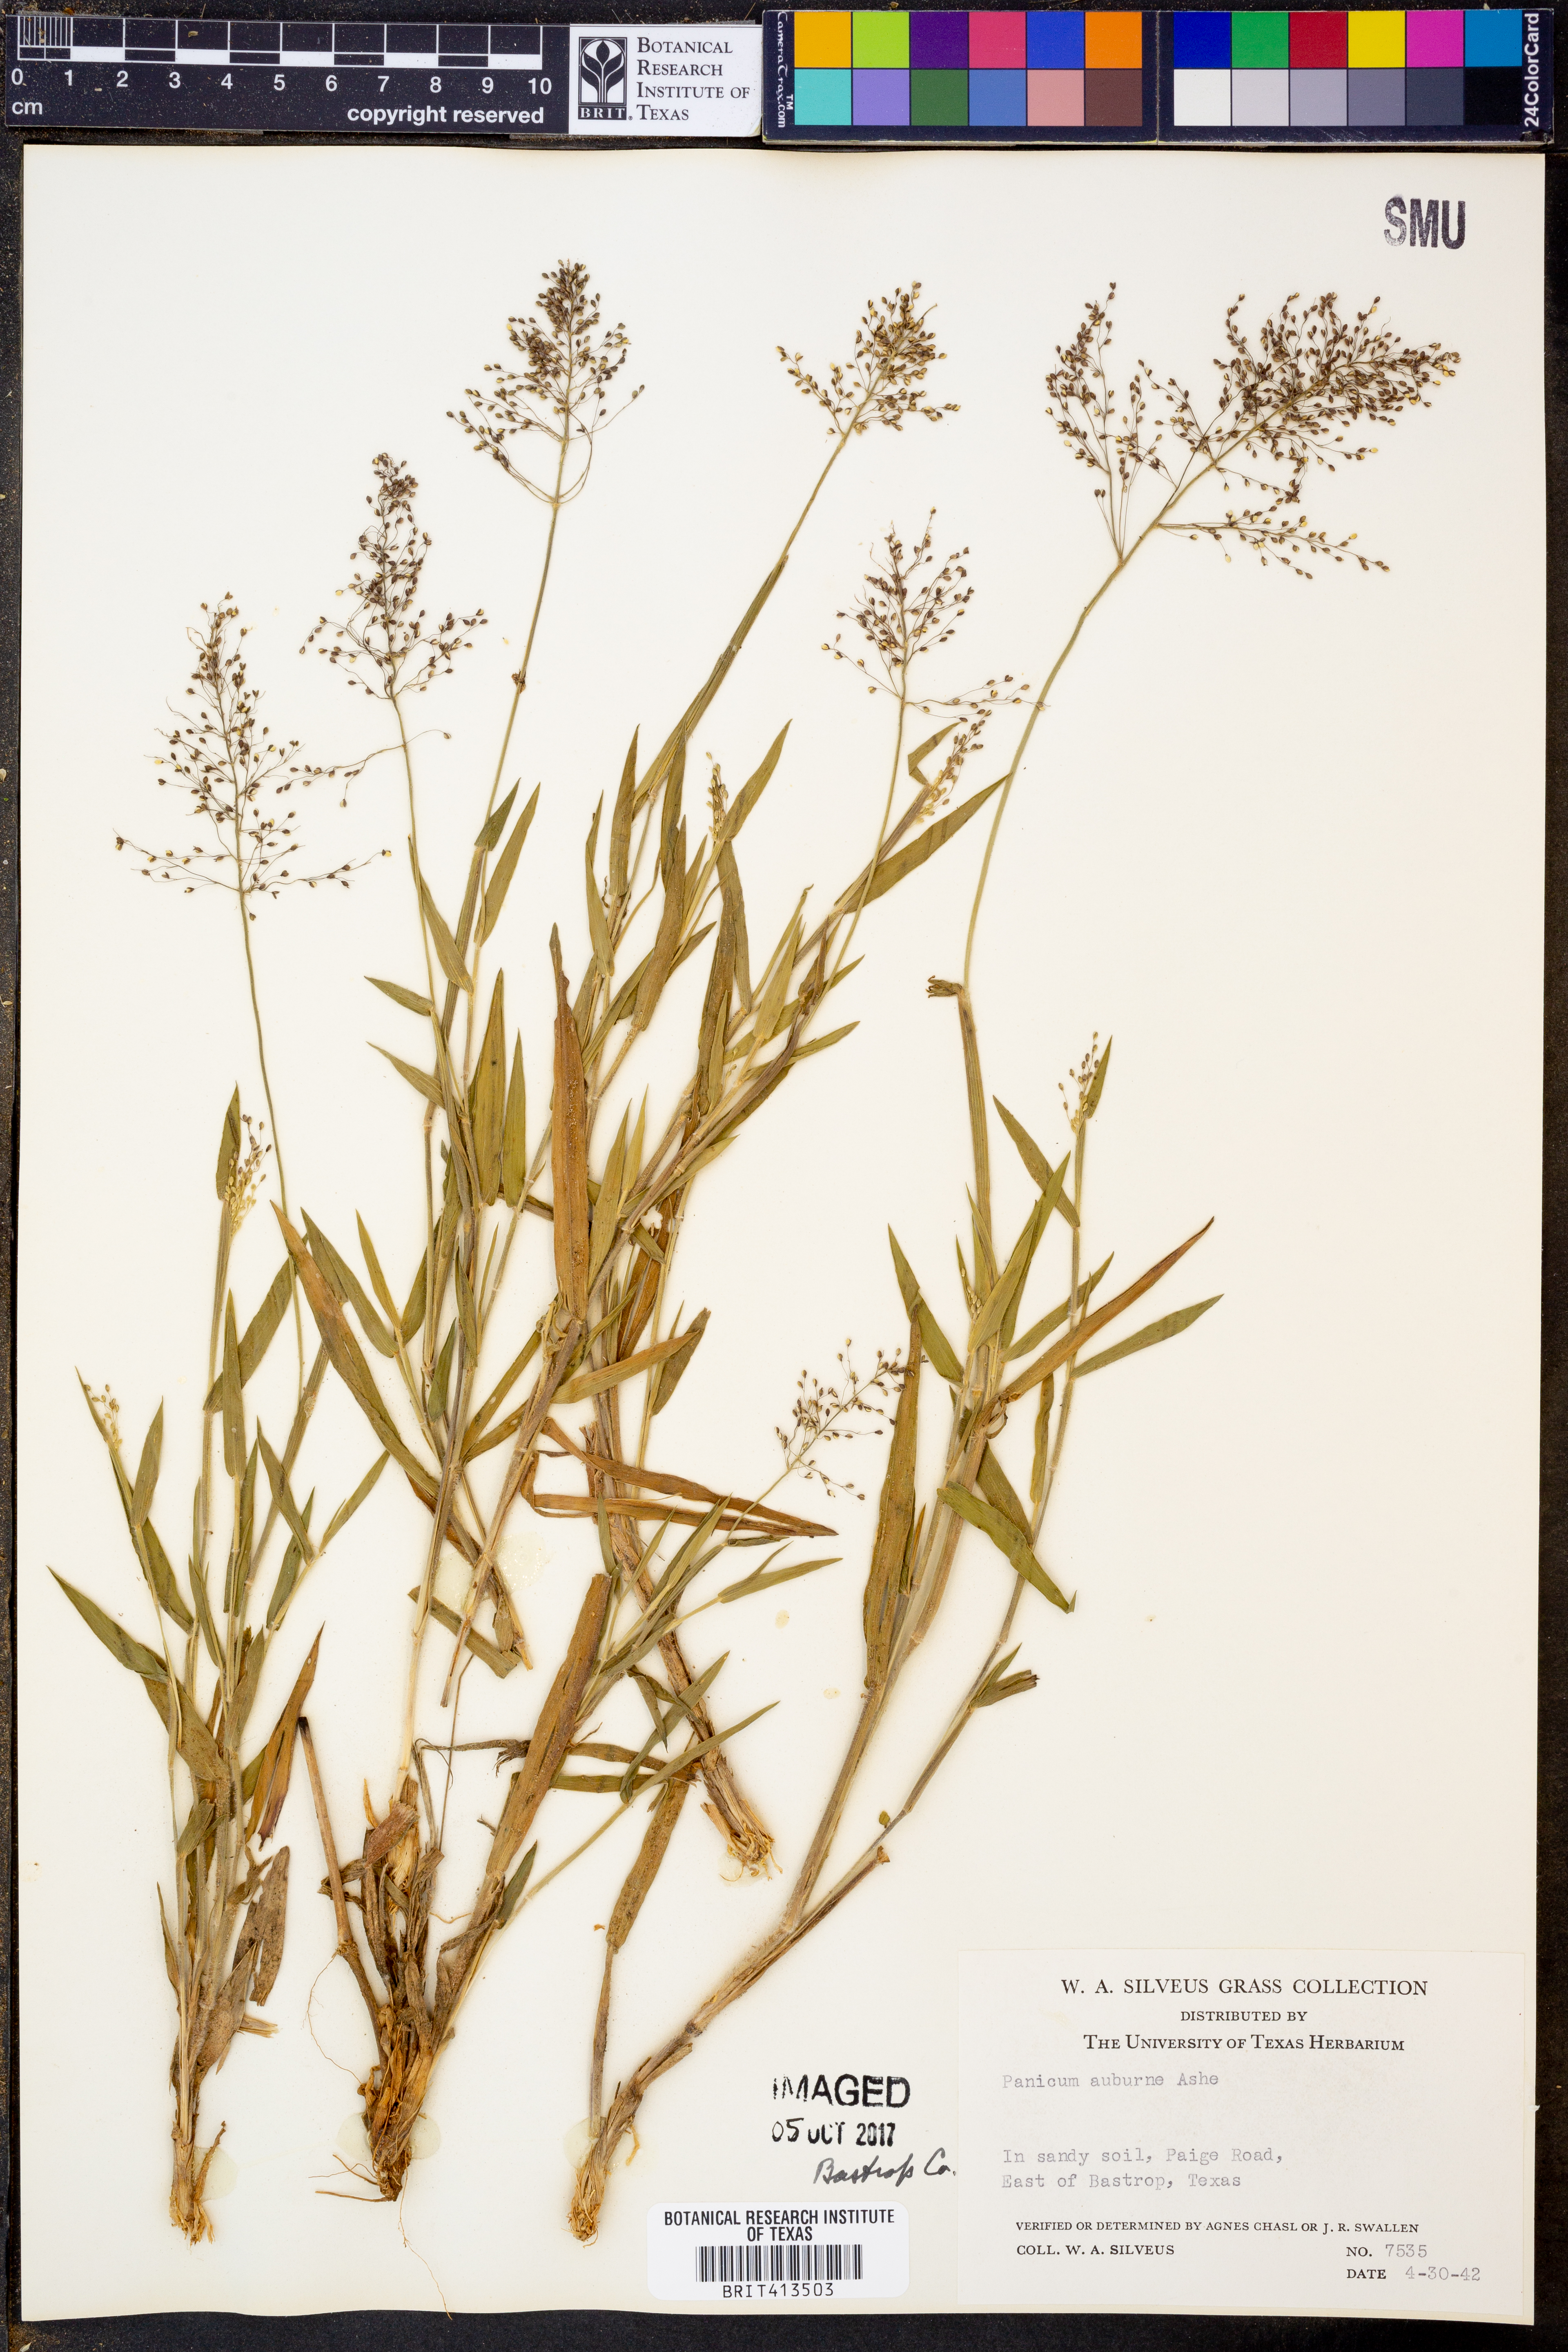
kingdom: Plantae
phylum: Tracheophyta
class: Liliopsida
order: Poales
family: Poaceae
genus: Dichanthelium
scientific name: Dichanthelium acuminatum
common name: Hairy panic grass
